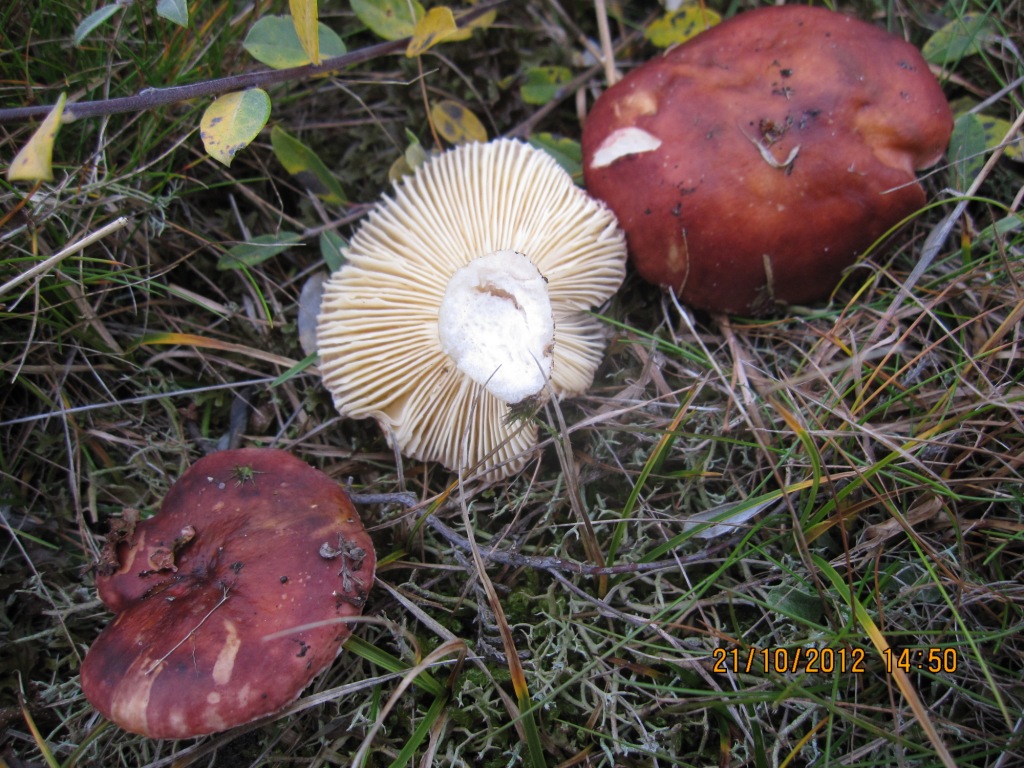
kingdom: Fungi
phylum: Basidiomycota
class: Agaricomycetes
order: Russulales
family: Russulaceae
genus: Russula
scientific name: Russula subrubens
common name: pile-skørhat
